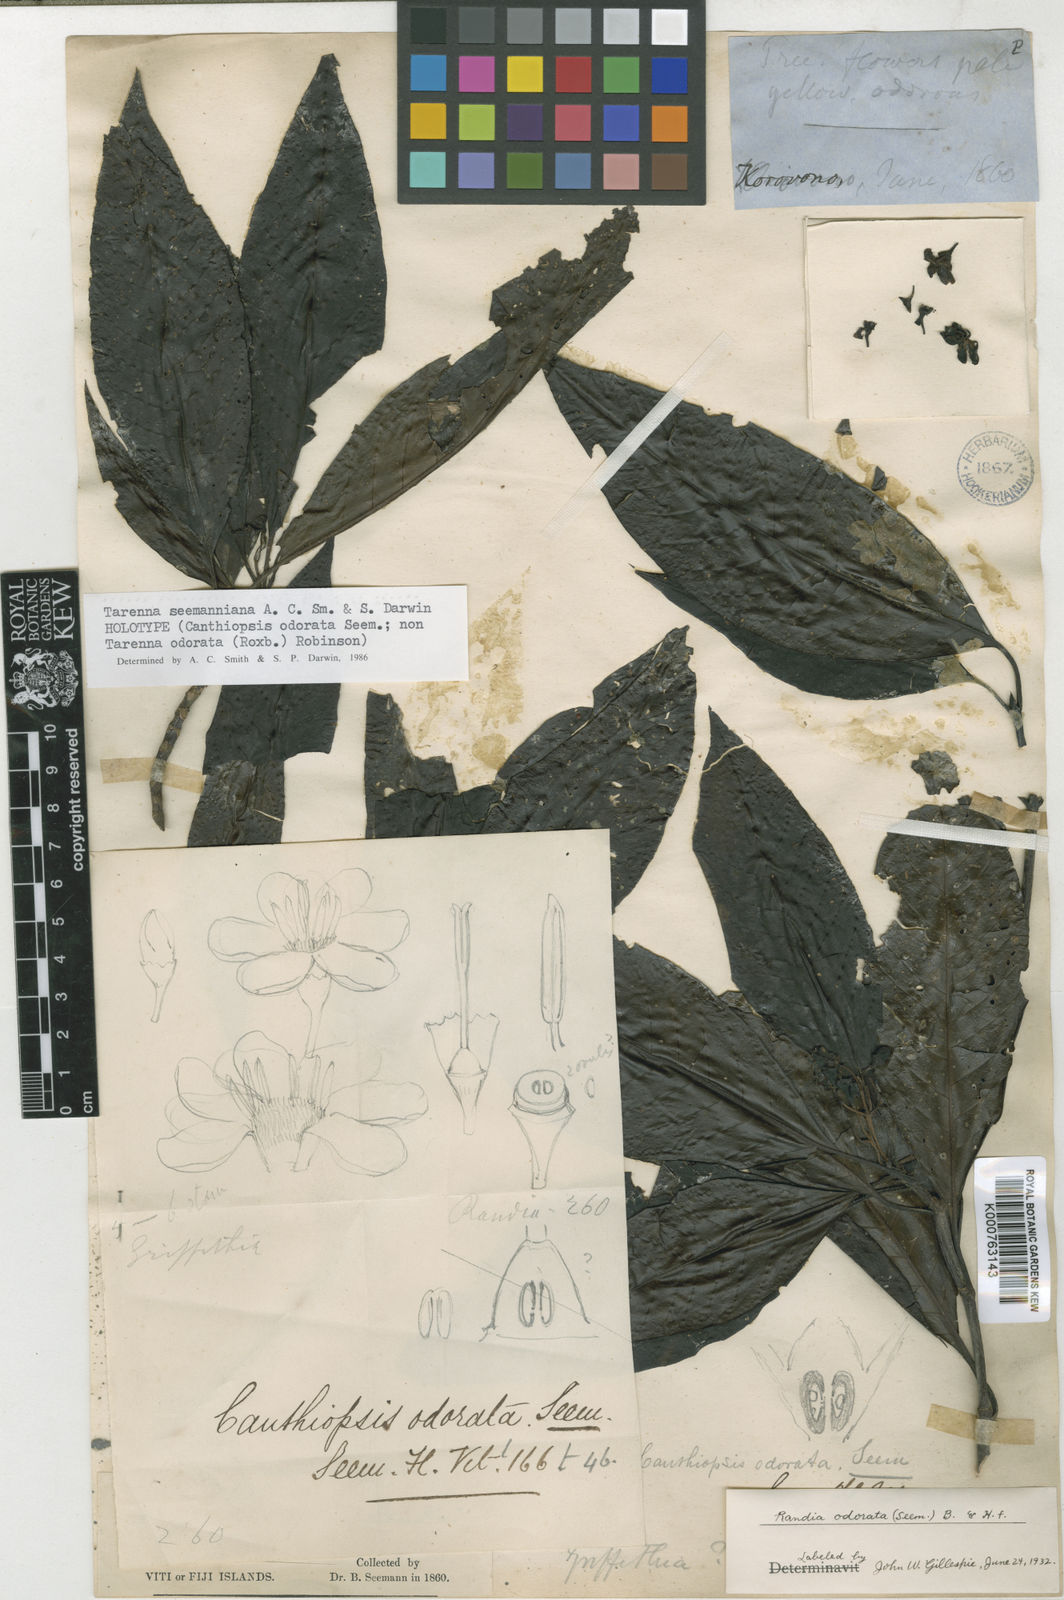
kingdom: Plantae
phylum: Tracheophyta
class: Magnoliopsida
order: Gentianales
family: Rubiaceae
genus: Tarenna
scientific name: Tarenna seemanniana
